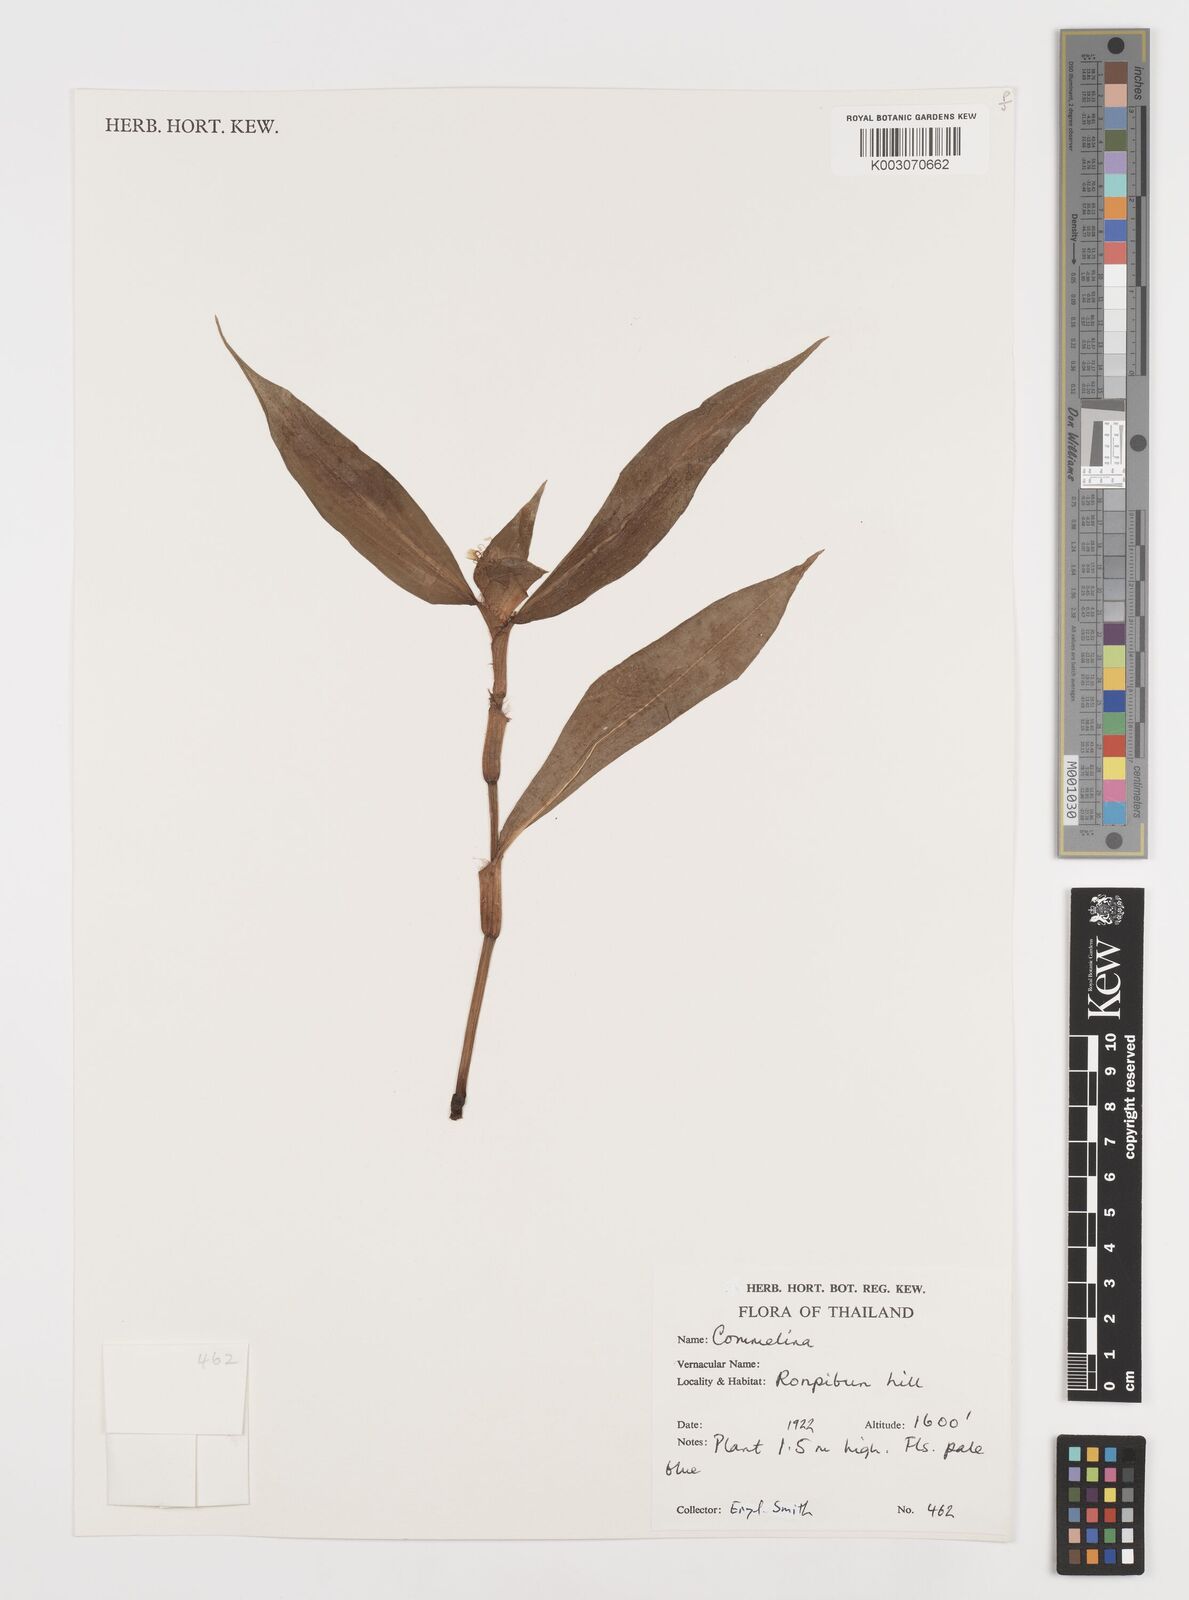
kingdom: Plantae
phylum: Tracheophyta
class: Liliopsida
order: Commelinales
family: Commelinaceae
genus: Commelina
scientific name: Commelina
